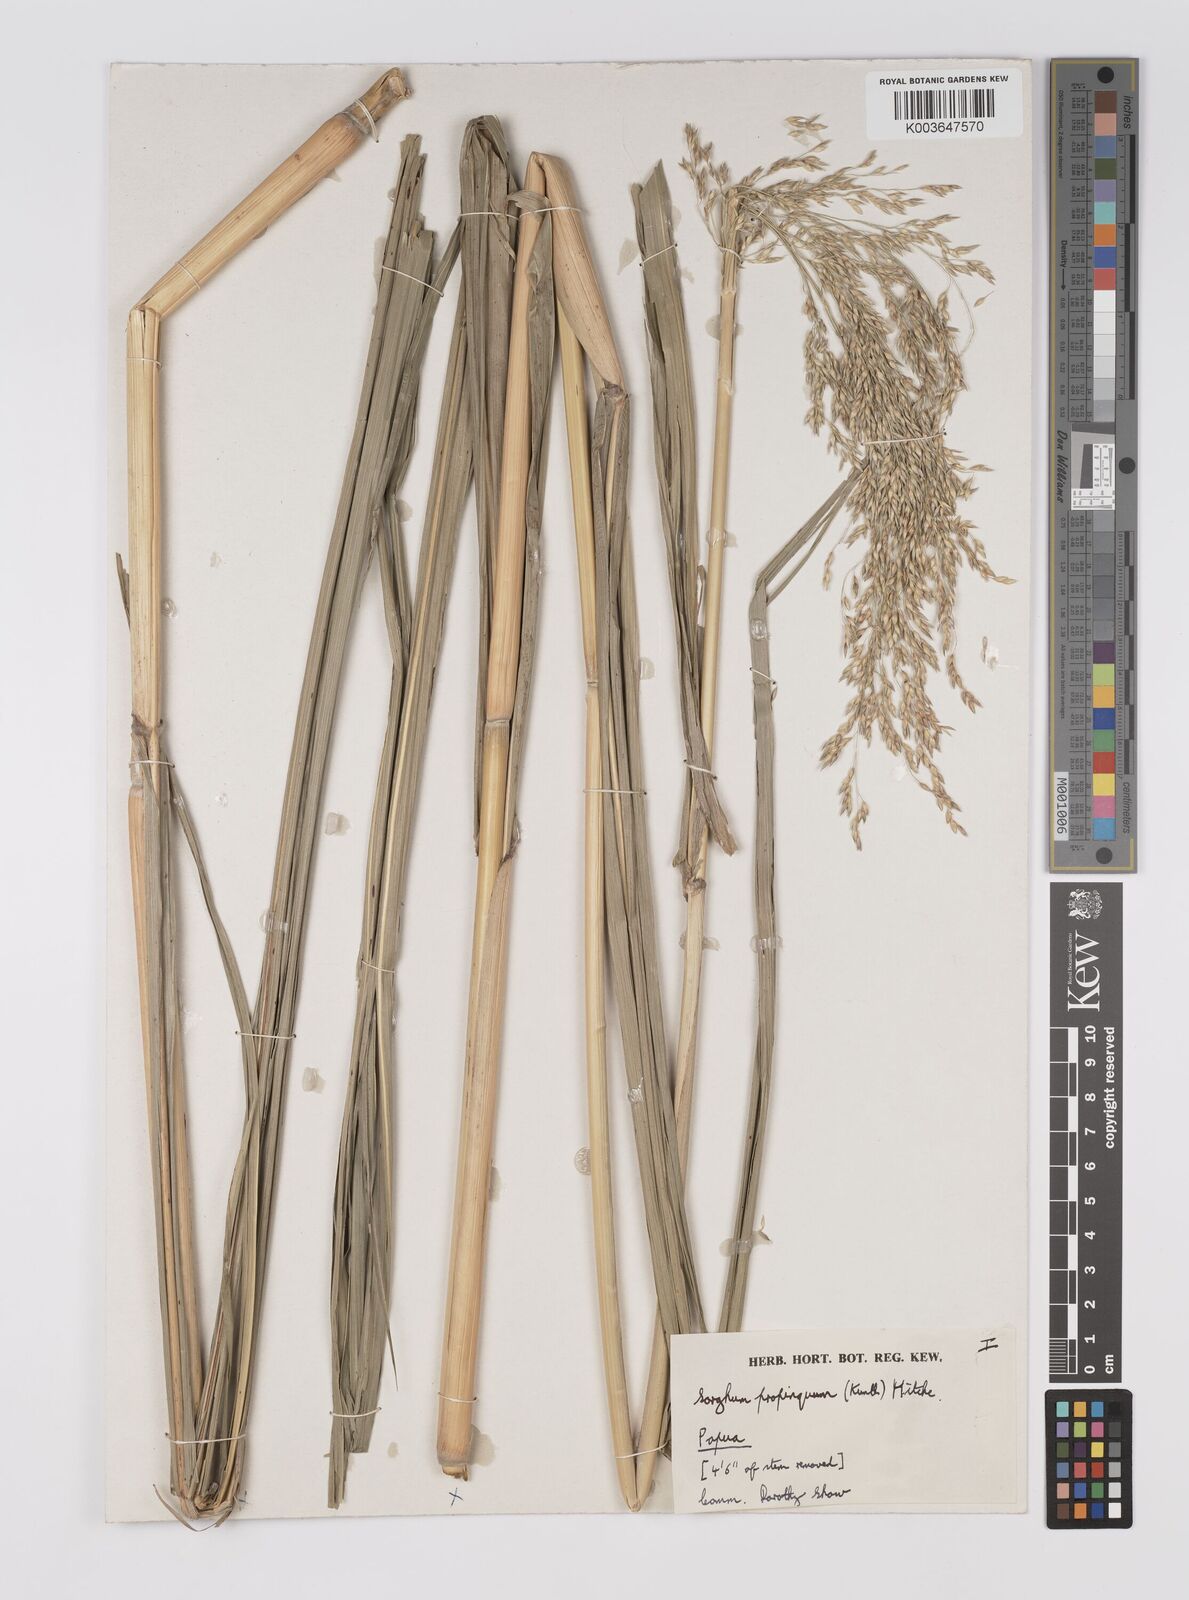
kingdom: Plantae
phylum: Tracheophyta
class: Liliopsida
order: Poales
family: Poaceae
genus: Sorghum
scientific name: Sorghum propinquum
